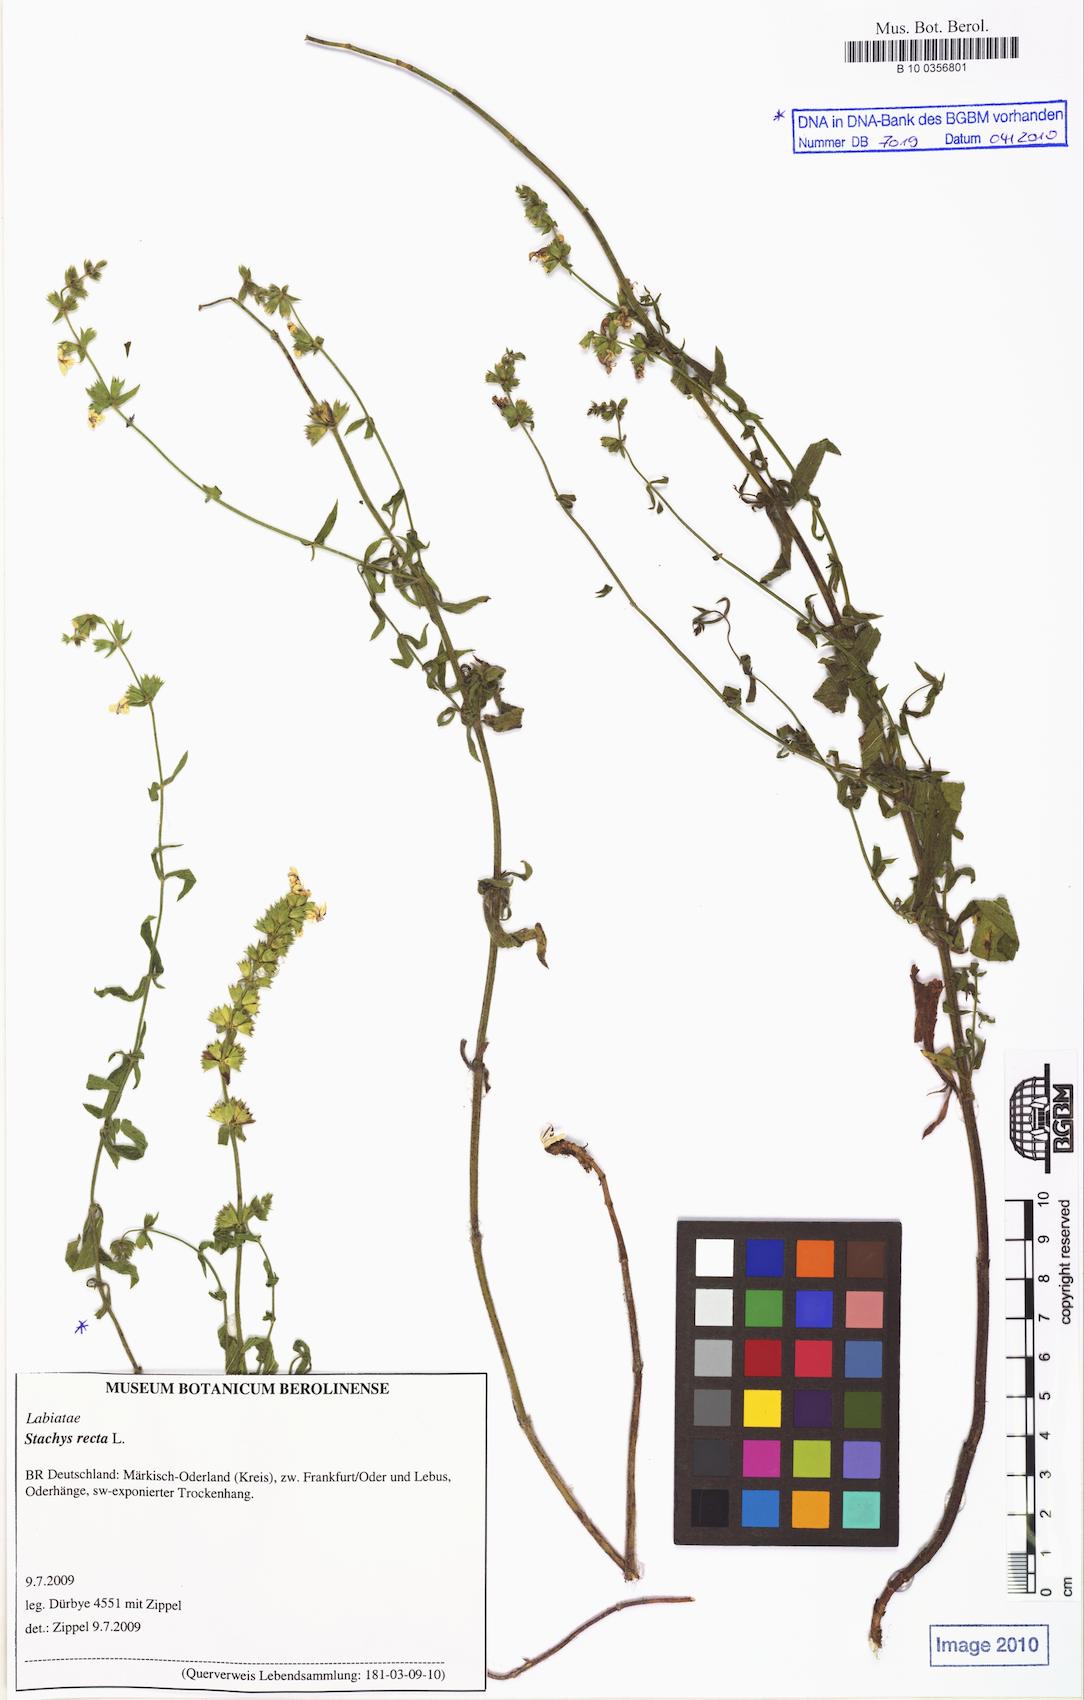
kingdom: Plantae
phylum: Tracheophyta
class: Magnoliopsida
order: Lamiales
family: Lamiaceae
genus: Stachys
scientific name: Stachys recta
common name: Perennial yellow-woundwort
